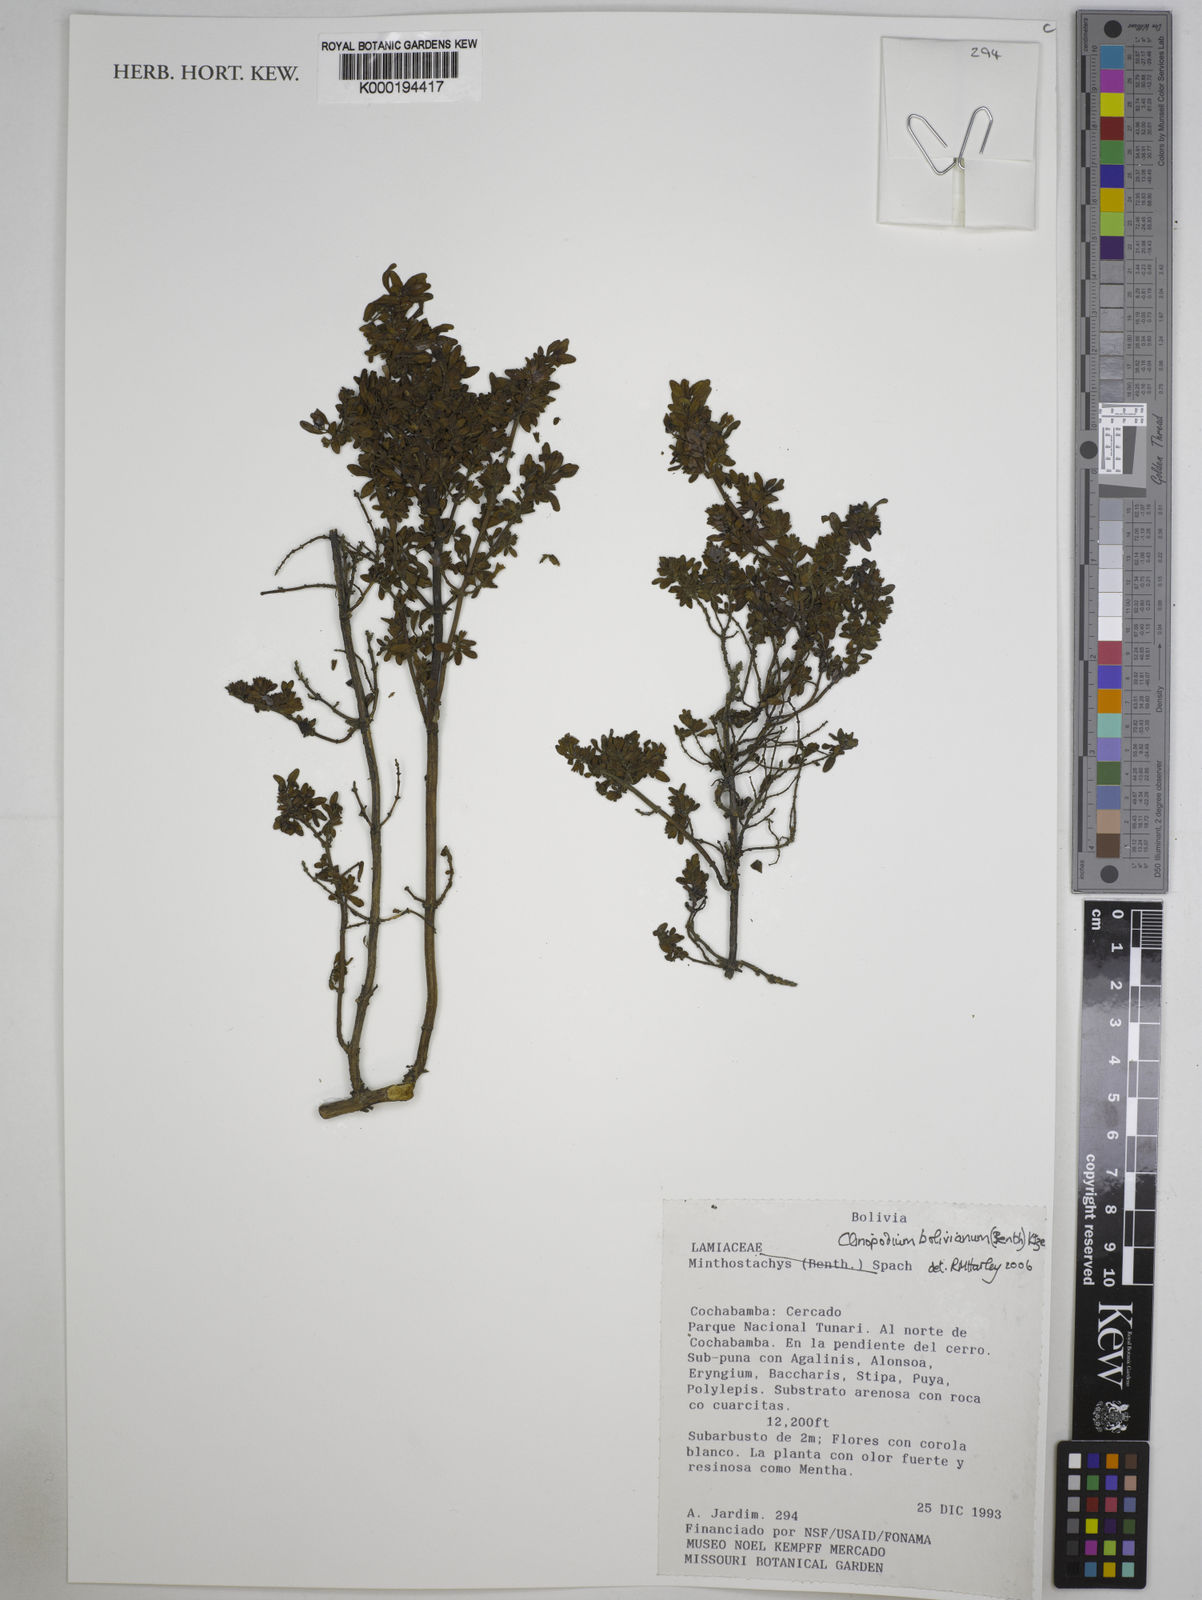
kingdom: Plantae
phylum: Tracheophyta
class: Magnoliopsida
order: Lamiales
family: Lamiaceae
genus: Clinopodium
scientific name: Clinopodium bolivianum
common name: Inca muña
